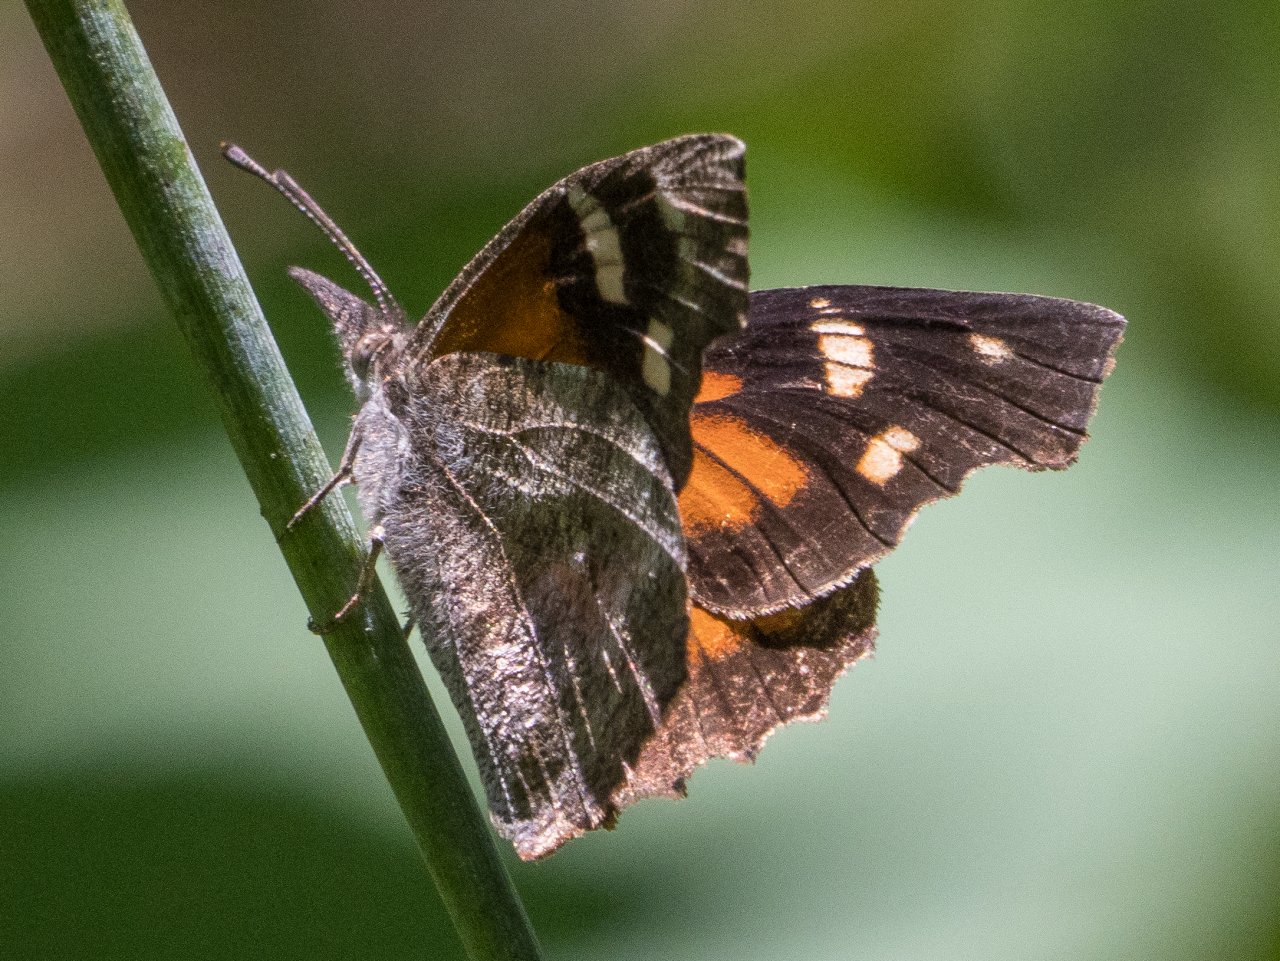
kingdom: Animalia
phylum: Arthropoda
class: Insecta
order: Lepidoptera
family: Nymphalidae
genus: Libytheana
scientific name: Libytheana carinenta
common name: American Snout
